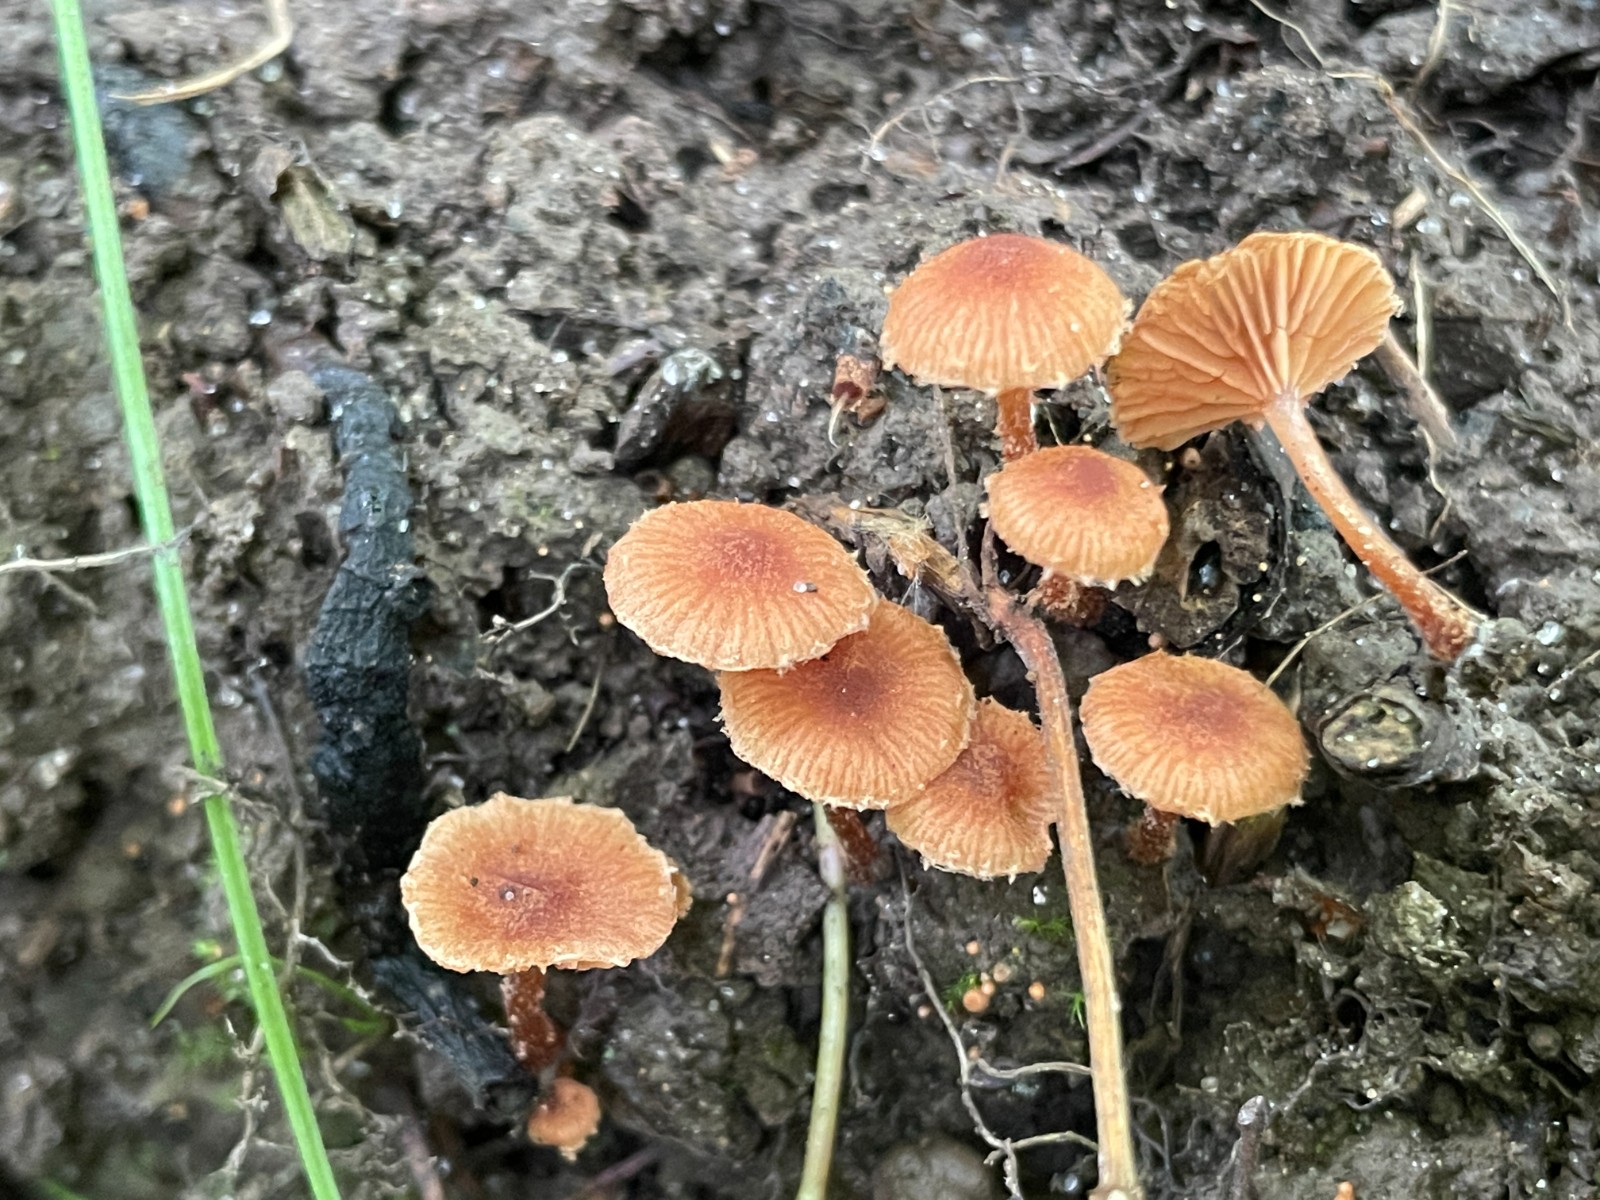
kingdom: Fungi
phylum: Basidiomycota
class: Agaricomycetes
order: Agaricales
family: Tubariaceae
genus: Flammulaster
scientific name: Flammulaster
